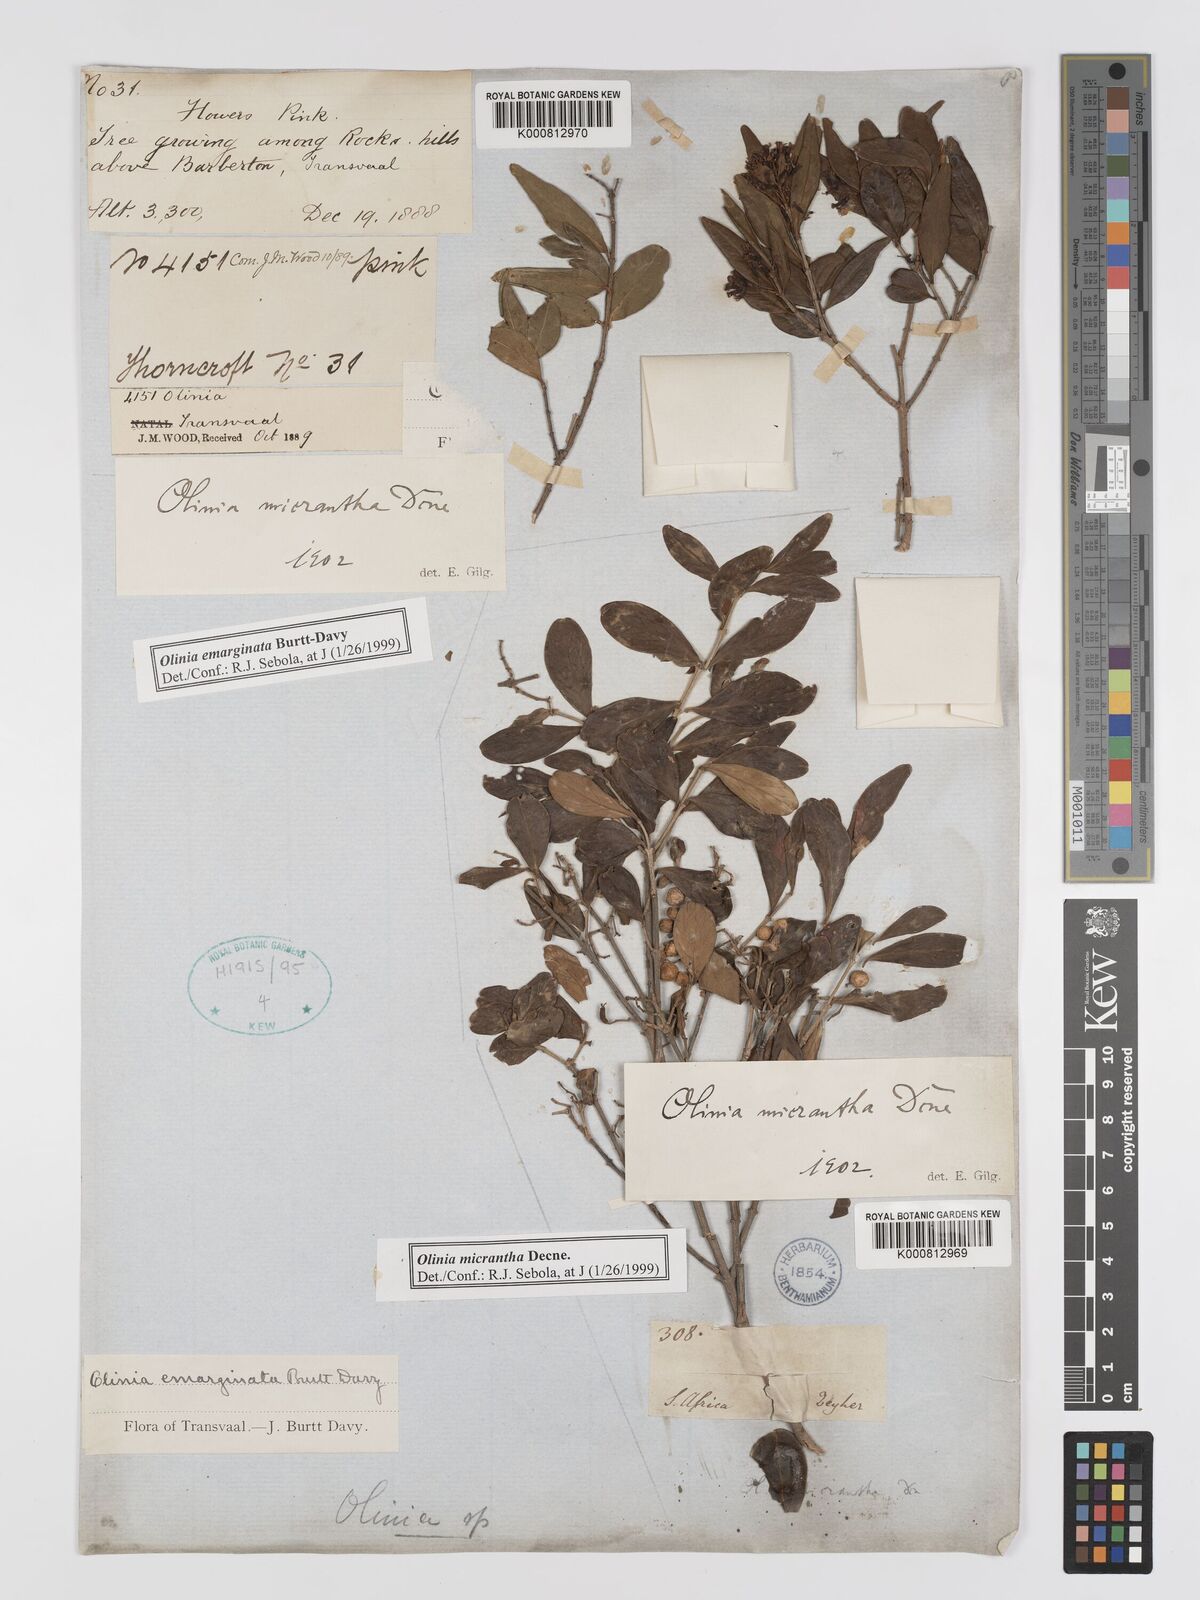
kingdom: Plantae
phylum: Tracheophyta
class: Magnoliopsida
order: Myrtales
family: Penaeaceae
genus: Olinia
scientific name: Olinia micrantha
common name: Eastern cape hard-pear
